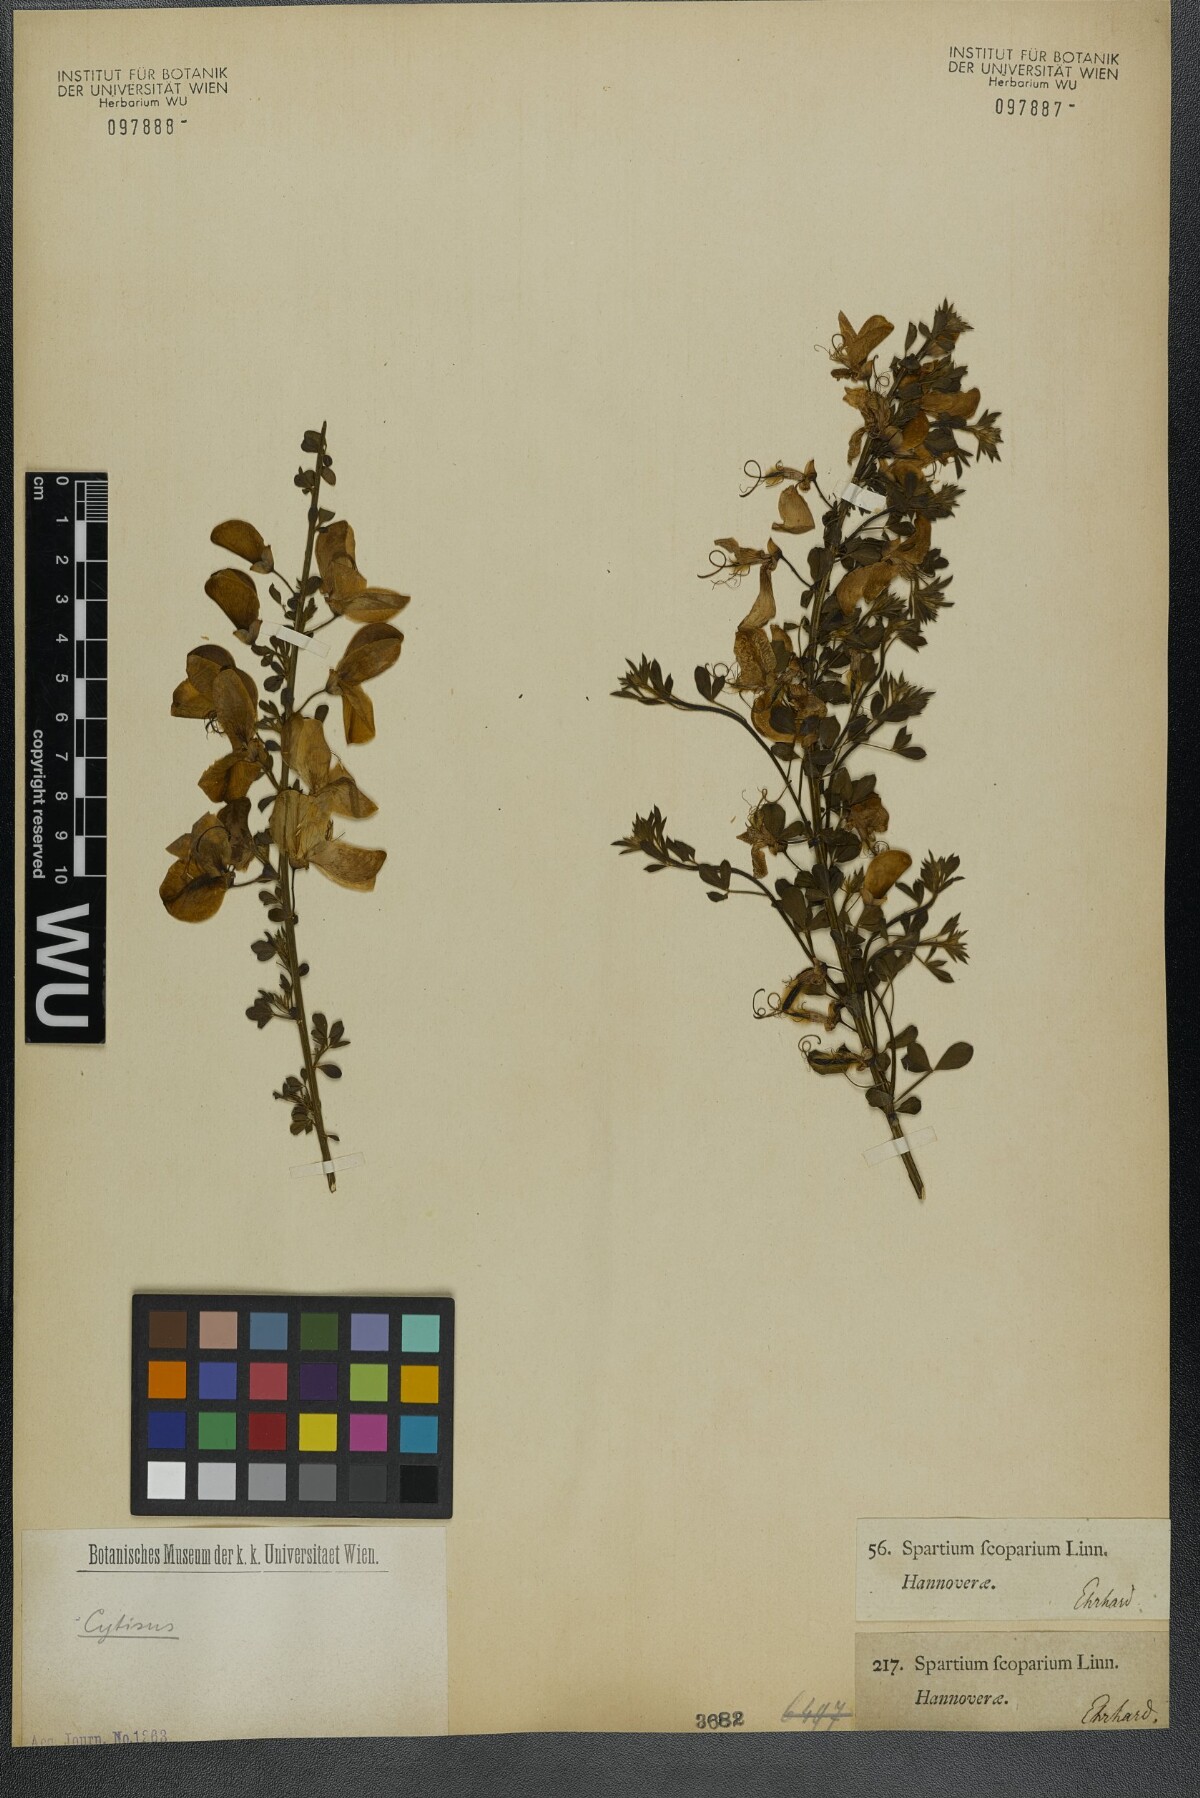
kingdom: Plantae
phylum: Tracheophyta
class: Magnoliopsida
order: Fabales
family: Fabaceae
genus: Cytisus
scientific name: Cytisus scoparius
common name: Scotch broom
